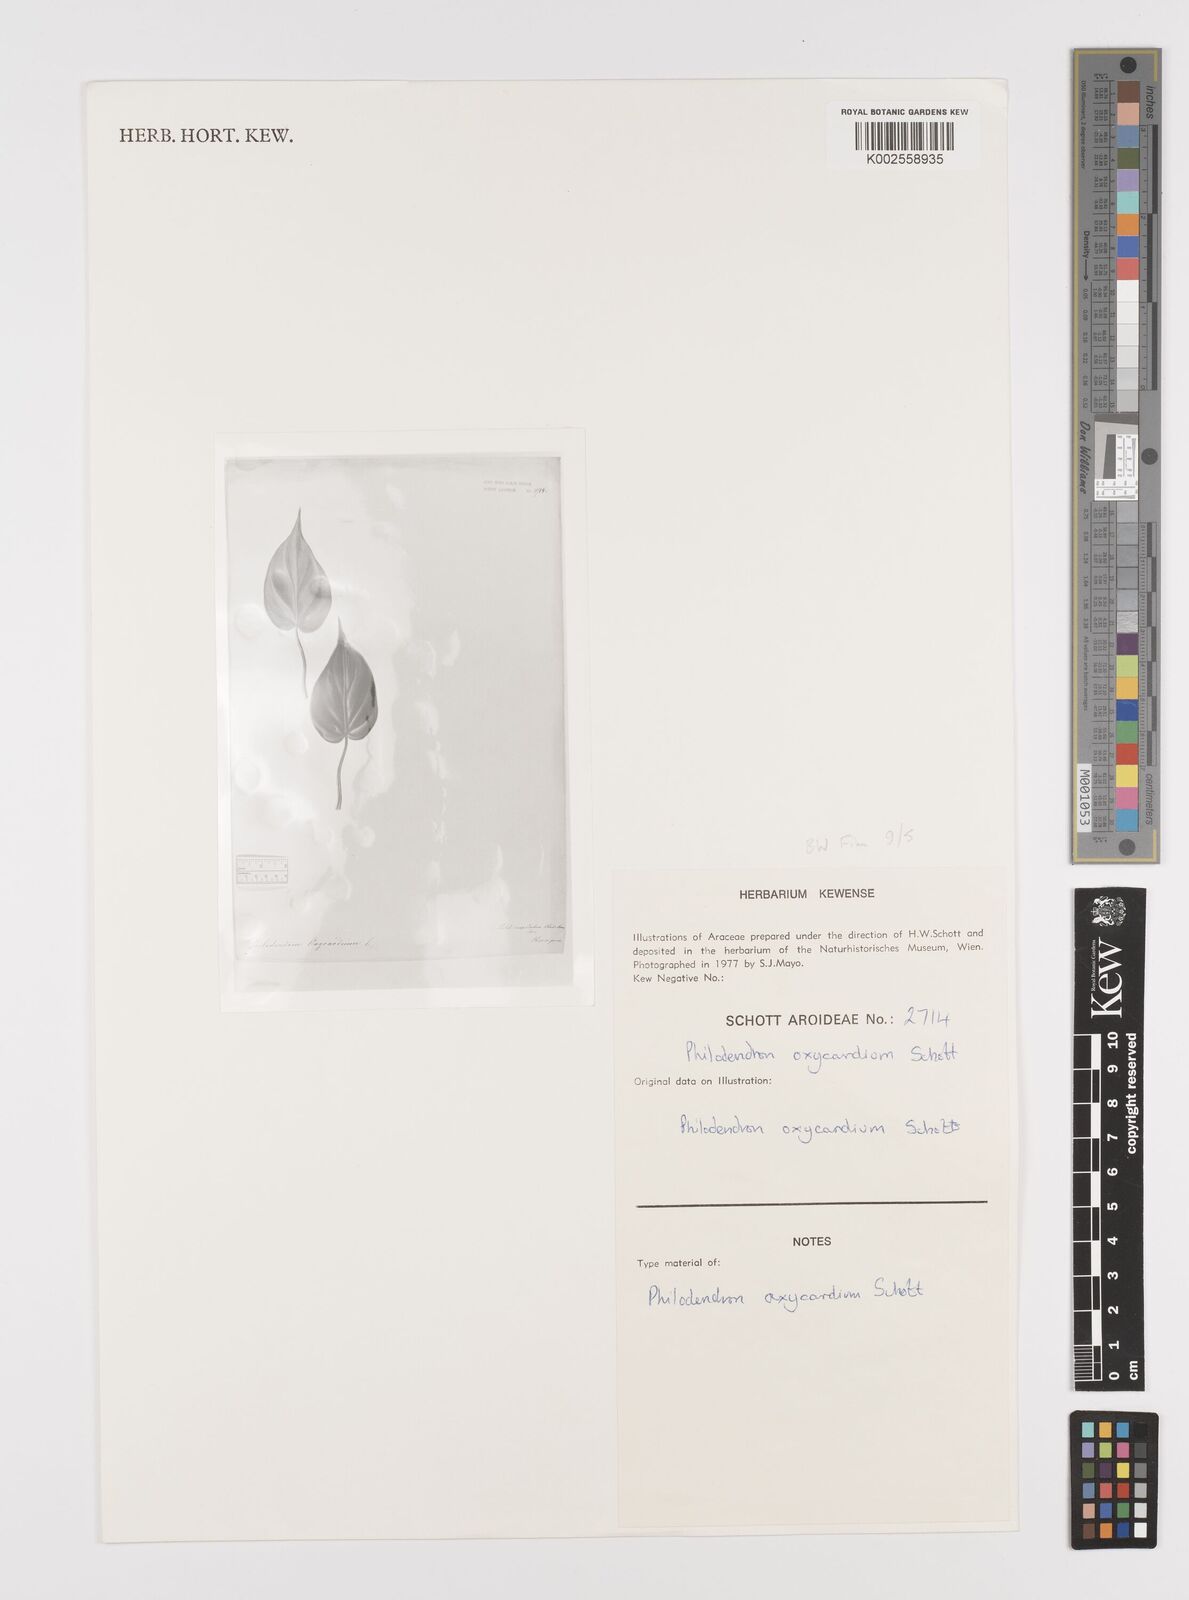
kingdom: Plantae
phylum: Tracheophyta
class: Liliopsida
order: Alismatales
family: Araceae
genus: Philodendron
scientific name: Philodendron hederaceum
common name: Vilevine
